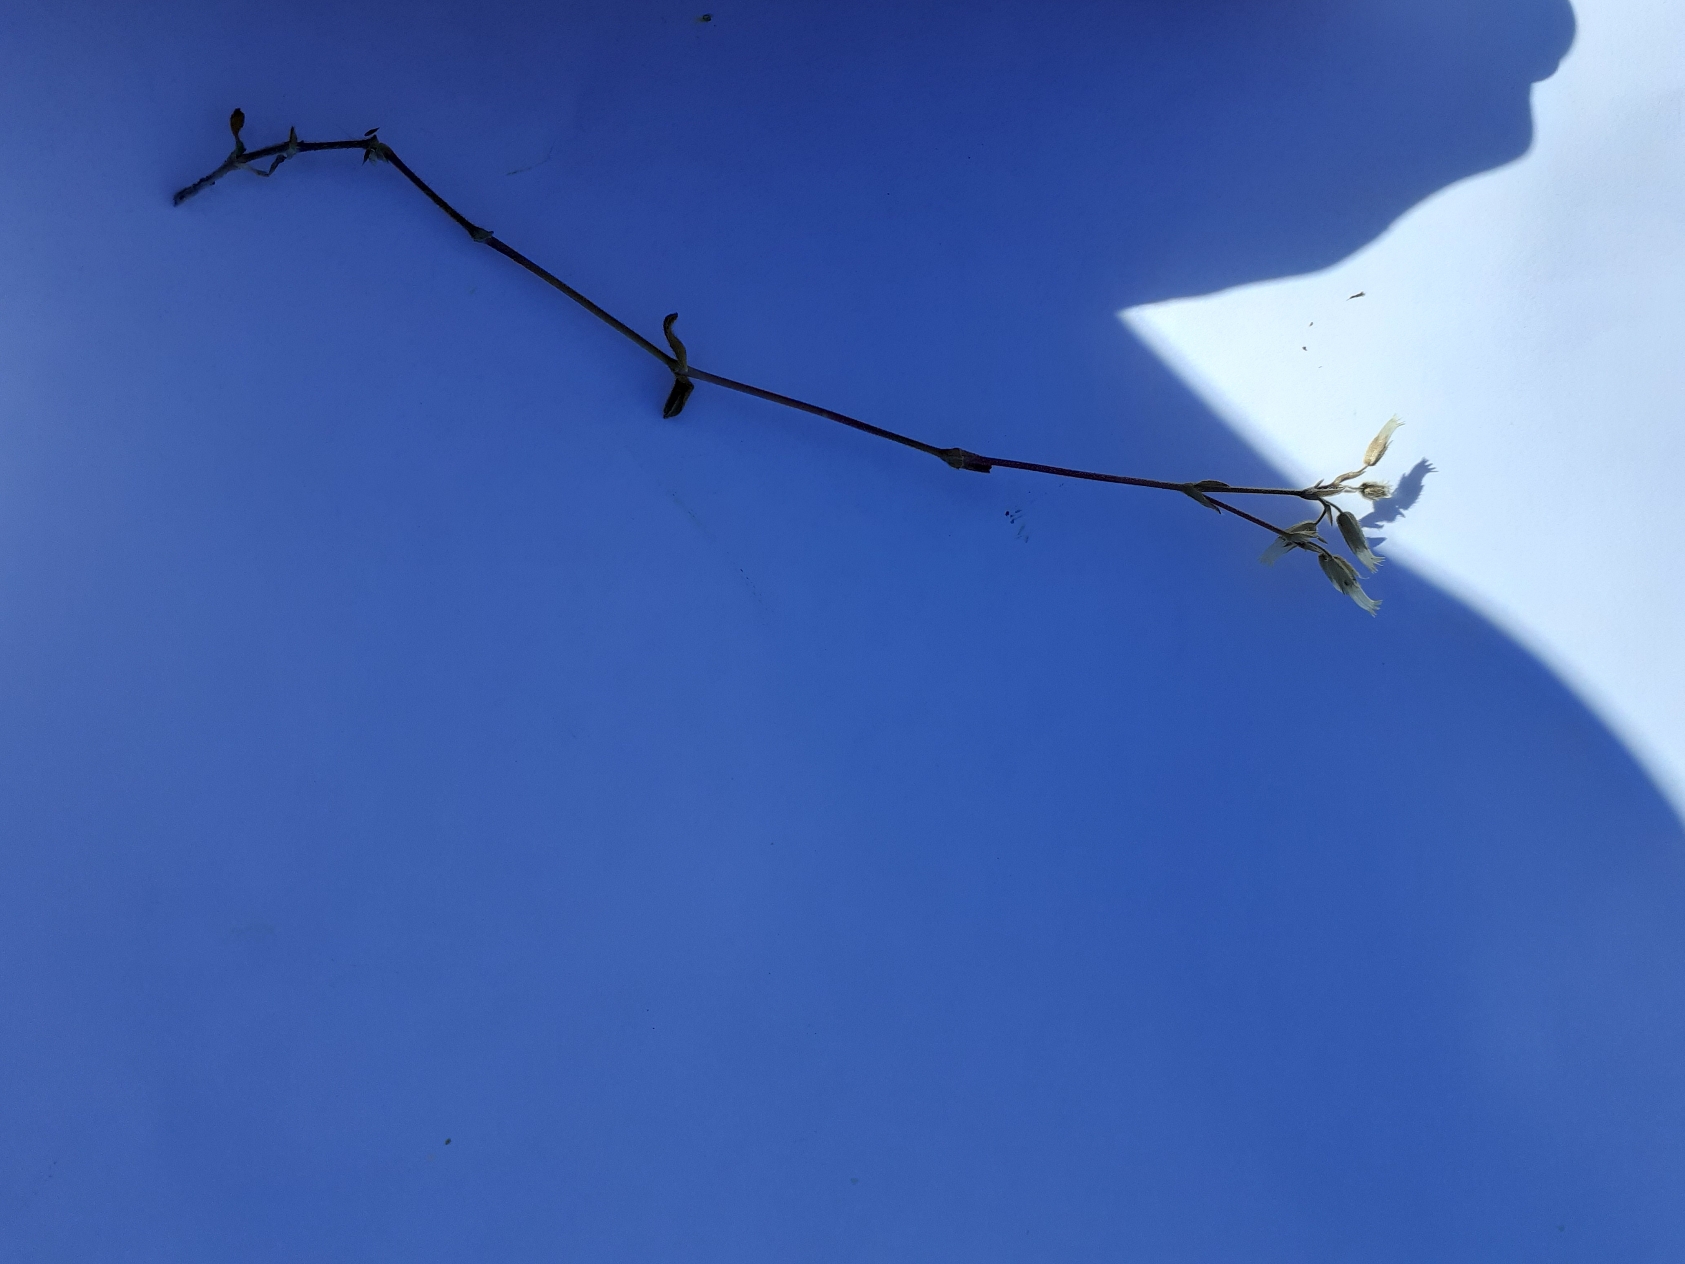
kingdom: Plantae
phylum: Tracheophyta
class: Magnoliopsida
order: Caryophyllales
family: Caryophyllaceae
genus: Cerastium
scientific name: Cerastium fontanum
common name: Almindelig hønsetarm
